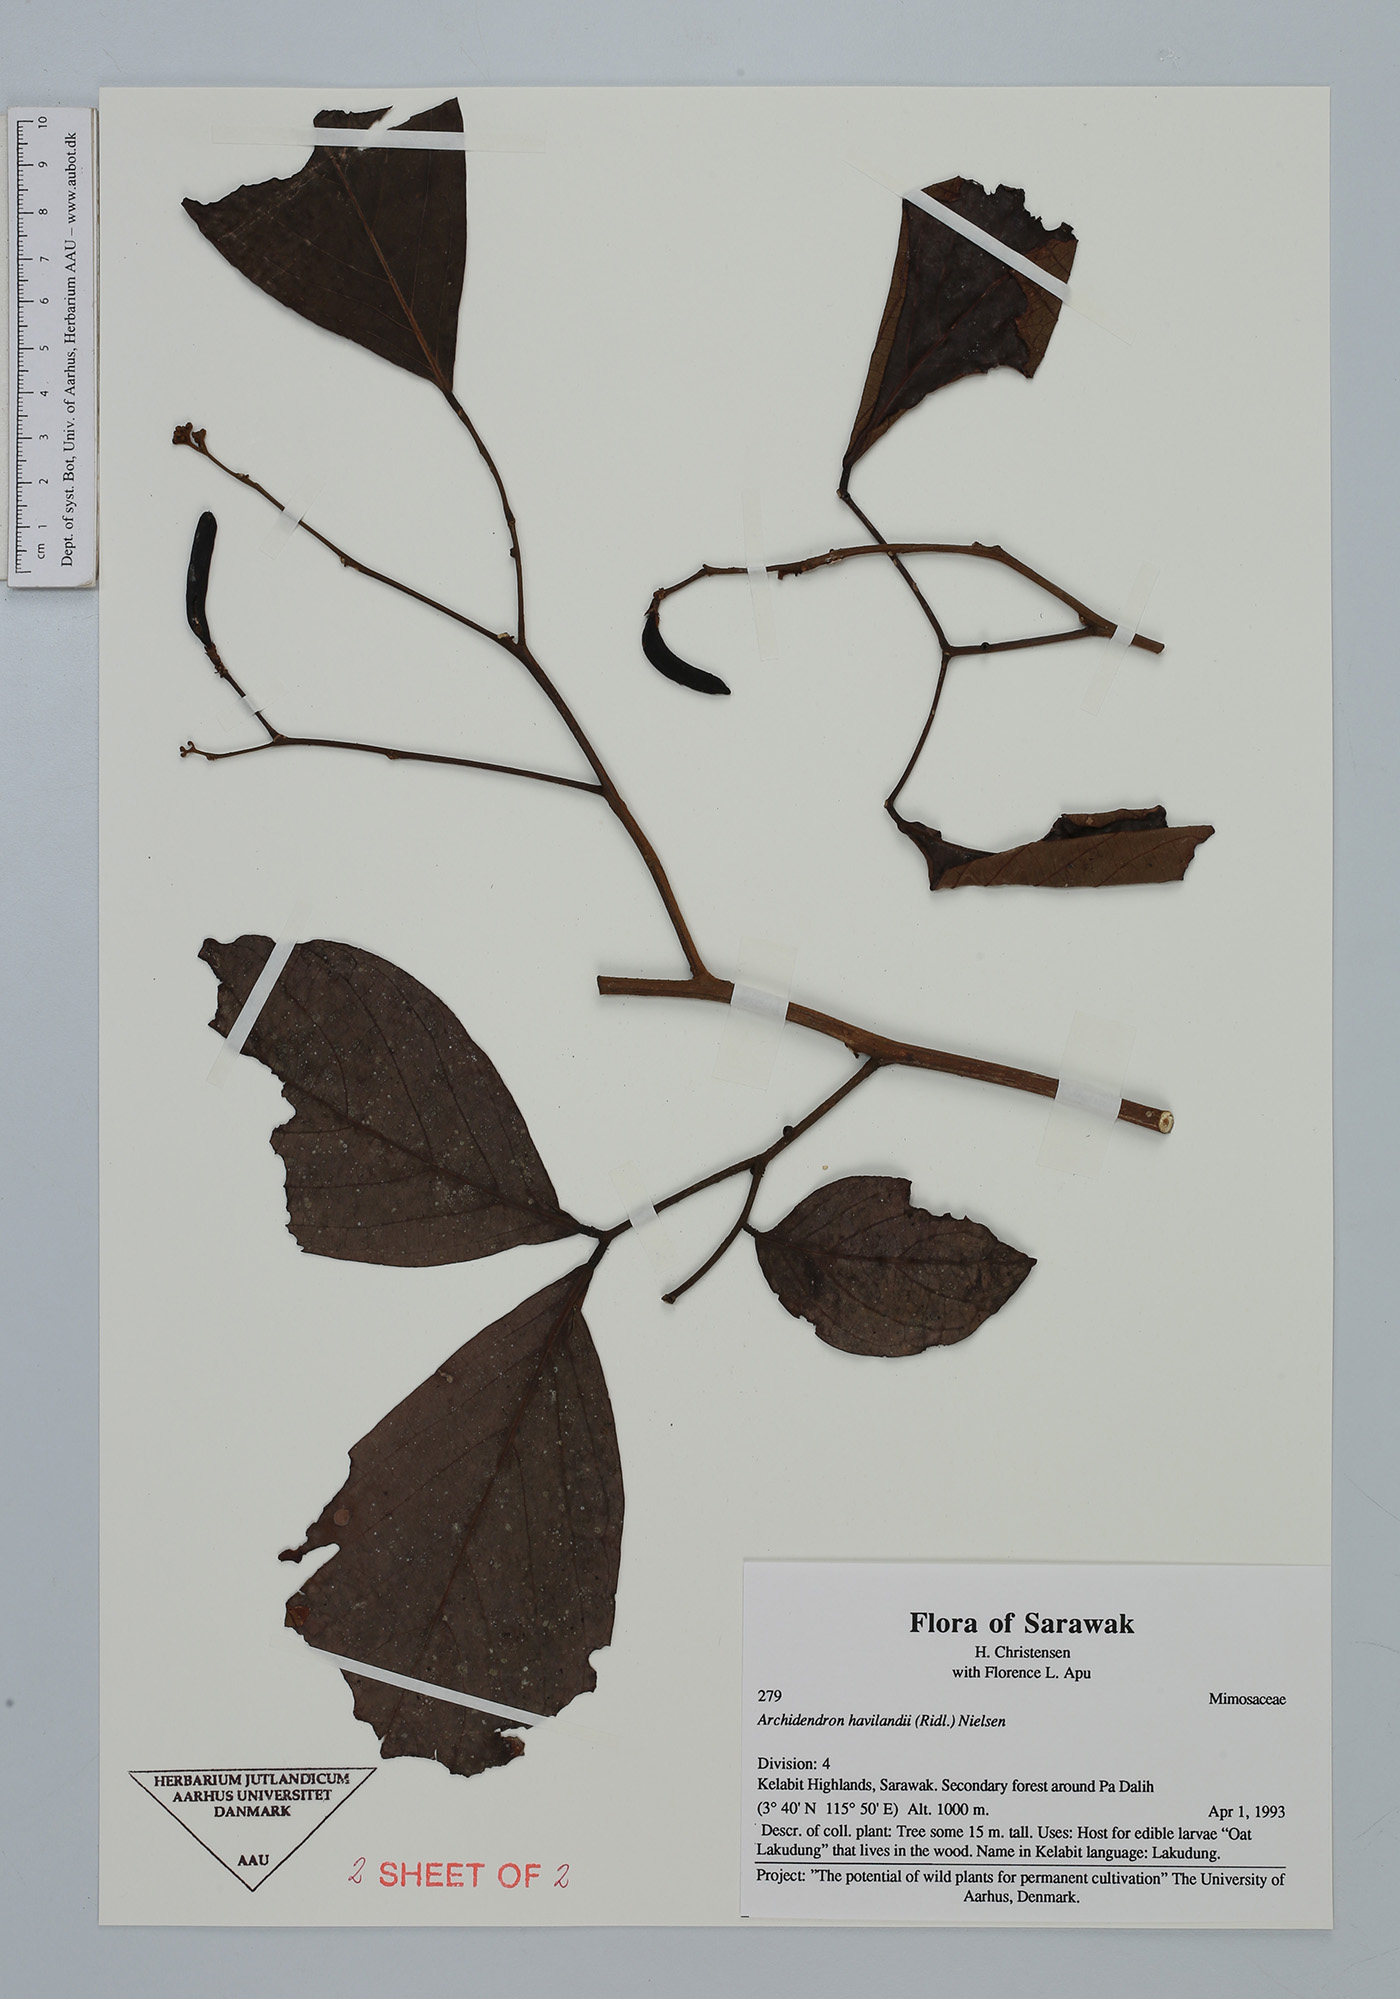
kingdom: Plantae
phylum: Tracheophyta
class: Magnoliopsida
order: Fabales
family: Fabaceae
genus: Archidendron
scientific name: Archidendron havilandii
